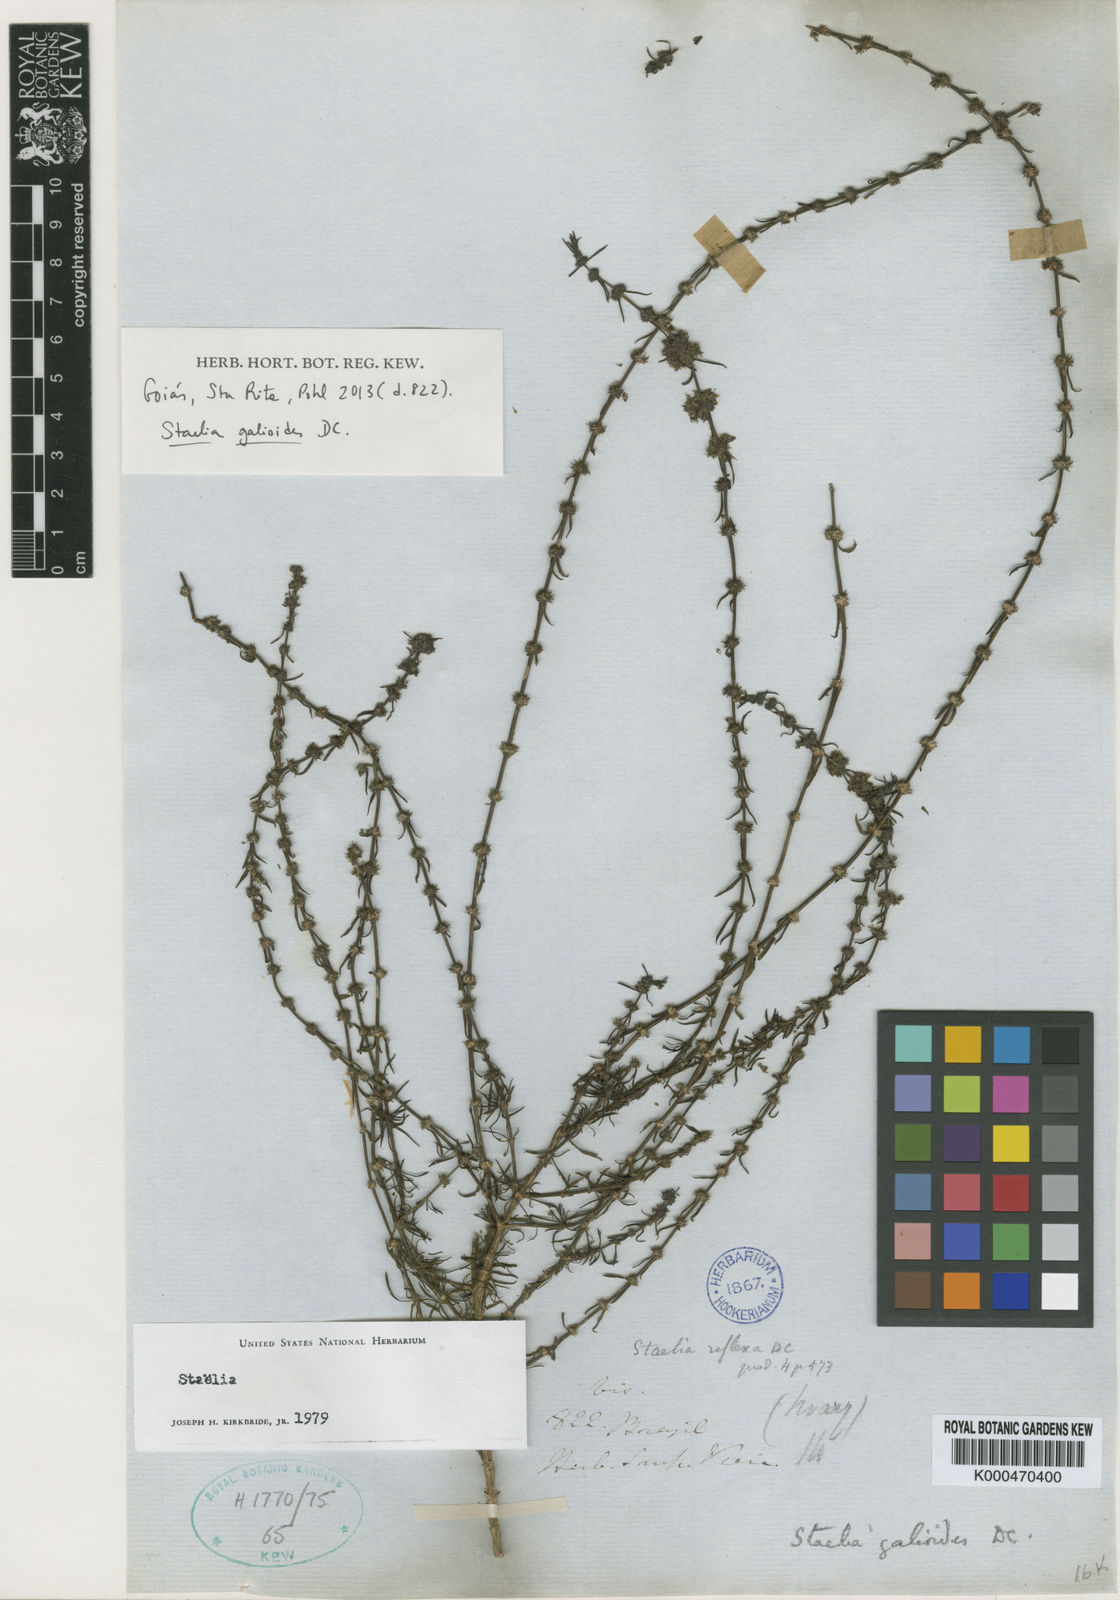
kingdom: Plantae
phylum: Tracheophyta
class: Magnoliopsida
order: Gentianales
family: Rubiaceae
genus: Staelia
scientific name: Staelia galioides
